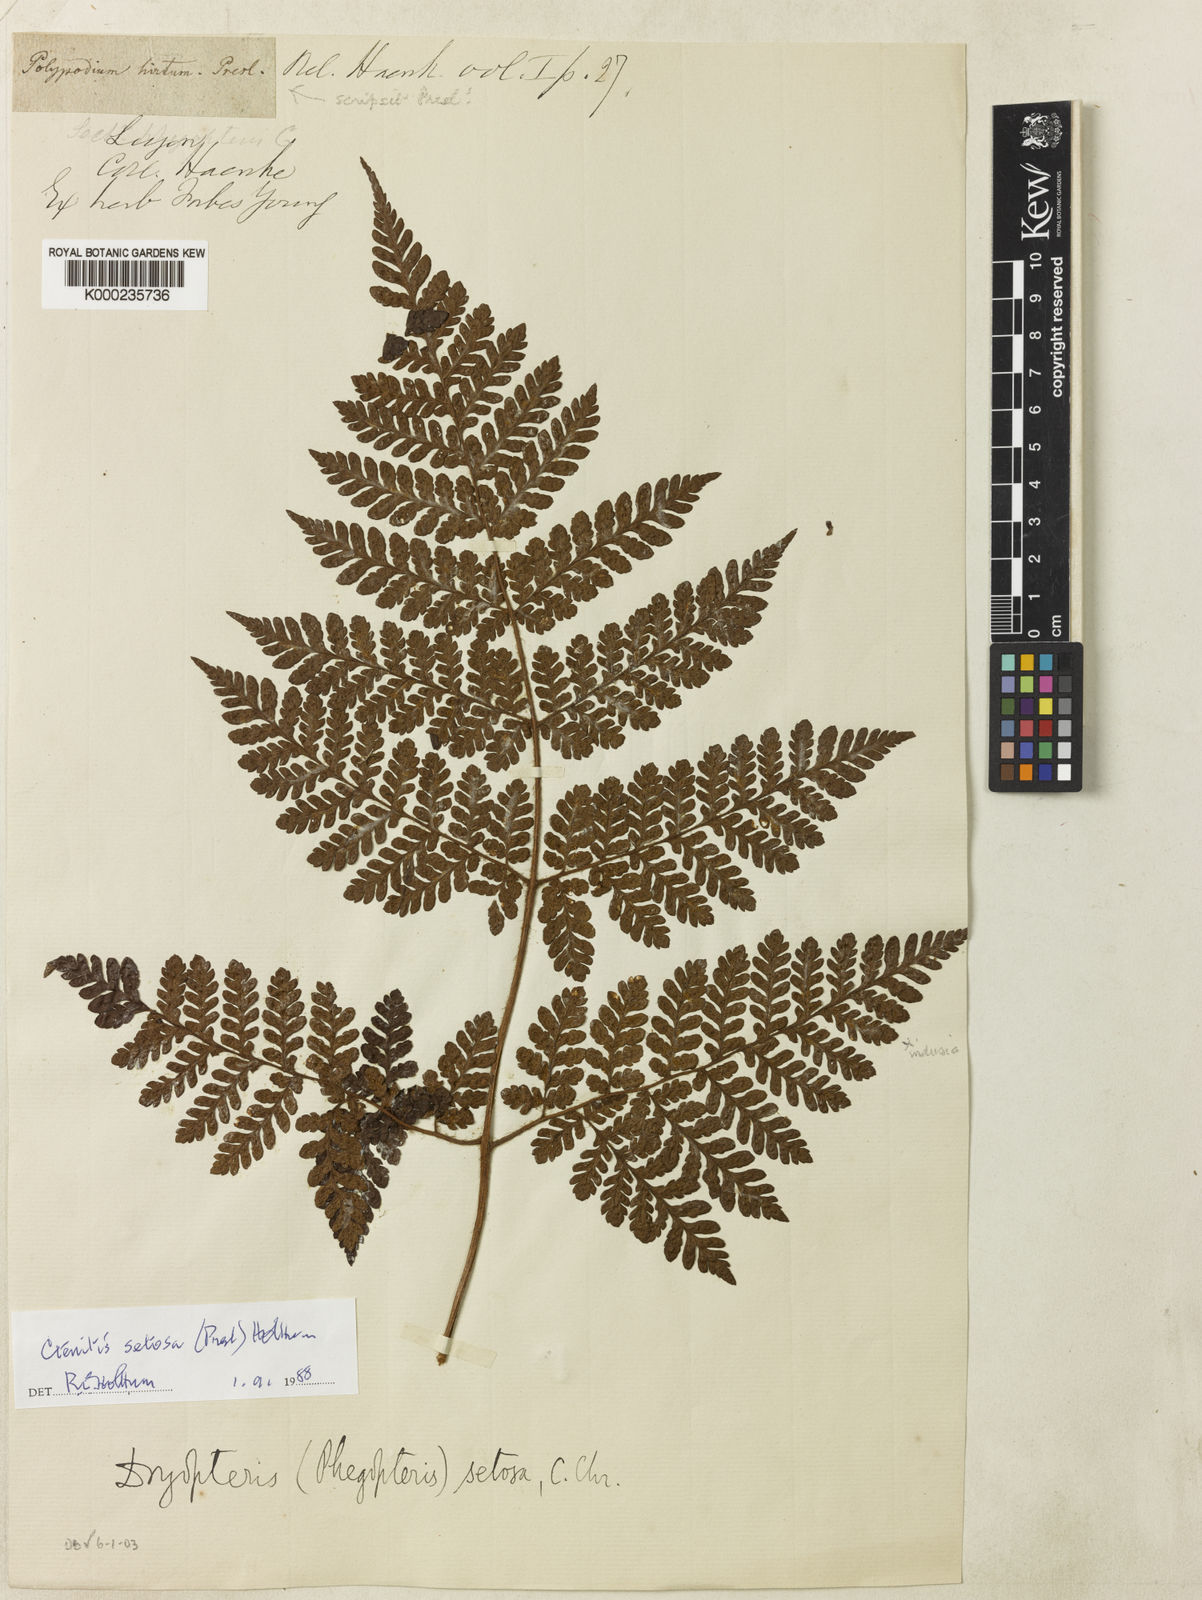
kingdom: Plantae
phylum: Tracheophyta
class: Polypodiopsida
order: Polypodiales
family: Dryopteridaceae
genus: Ctenitis
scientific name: Ctenitis setosa
